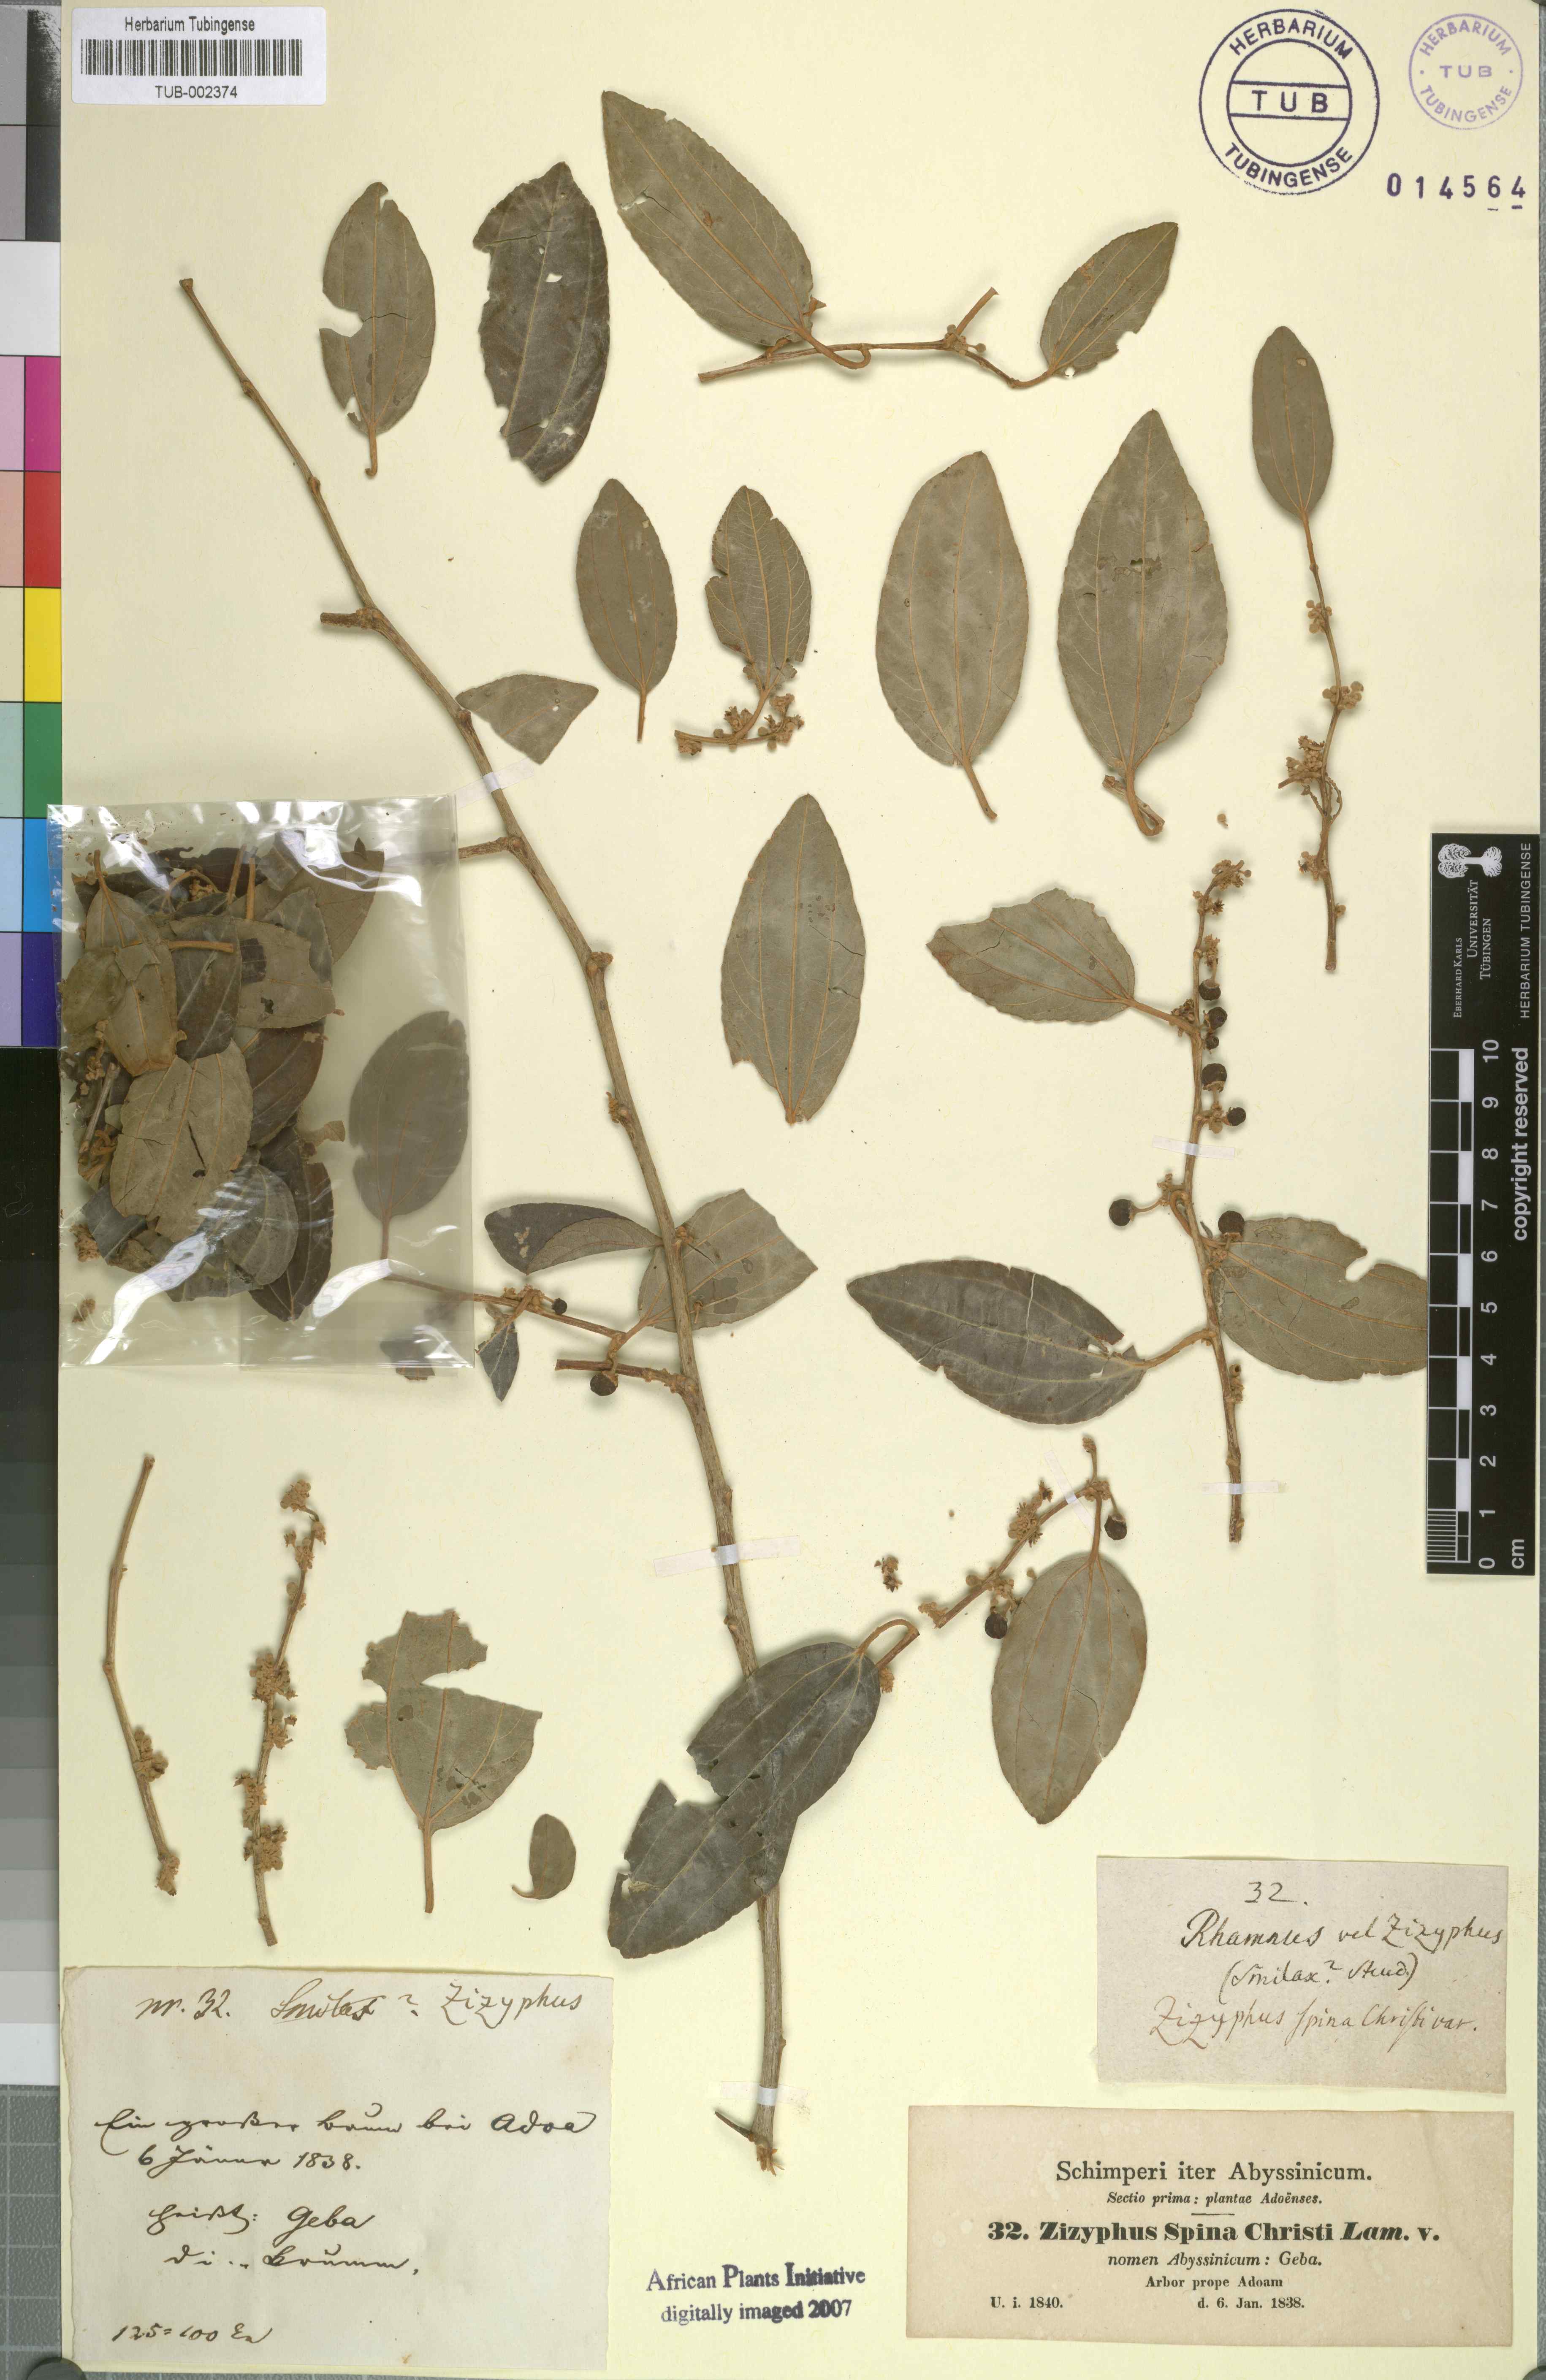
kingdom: Plantae
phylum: Tracheophyta
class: Magnoliopsida
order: Rosales
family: Rhamnaceae
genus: Ziziphus
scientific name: Ziziphus spina-christi
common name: Syrian christ-thorn
